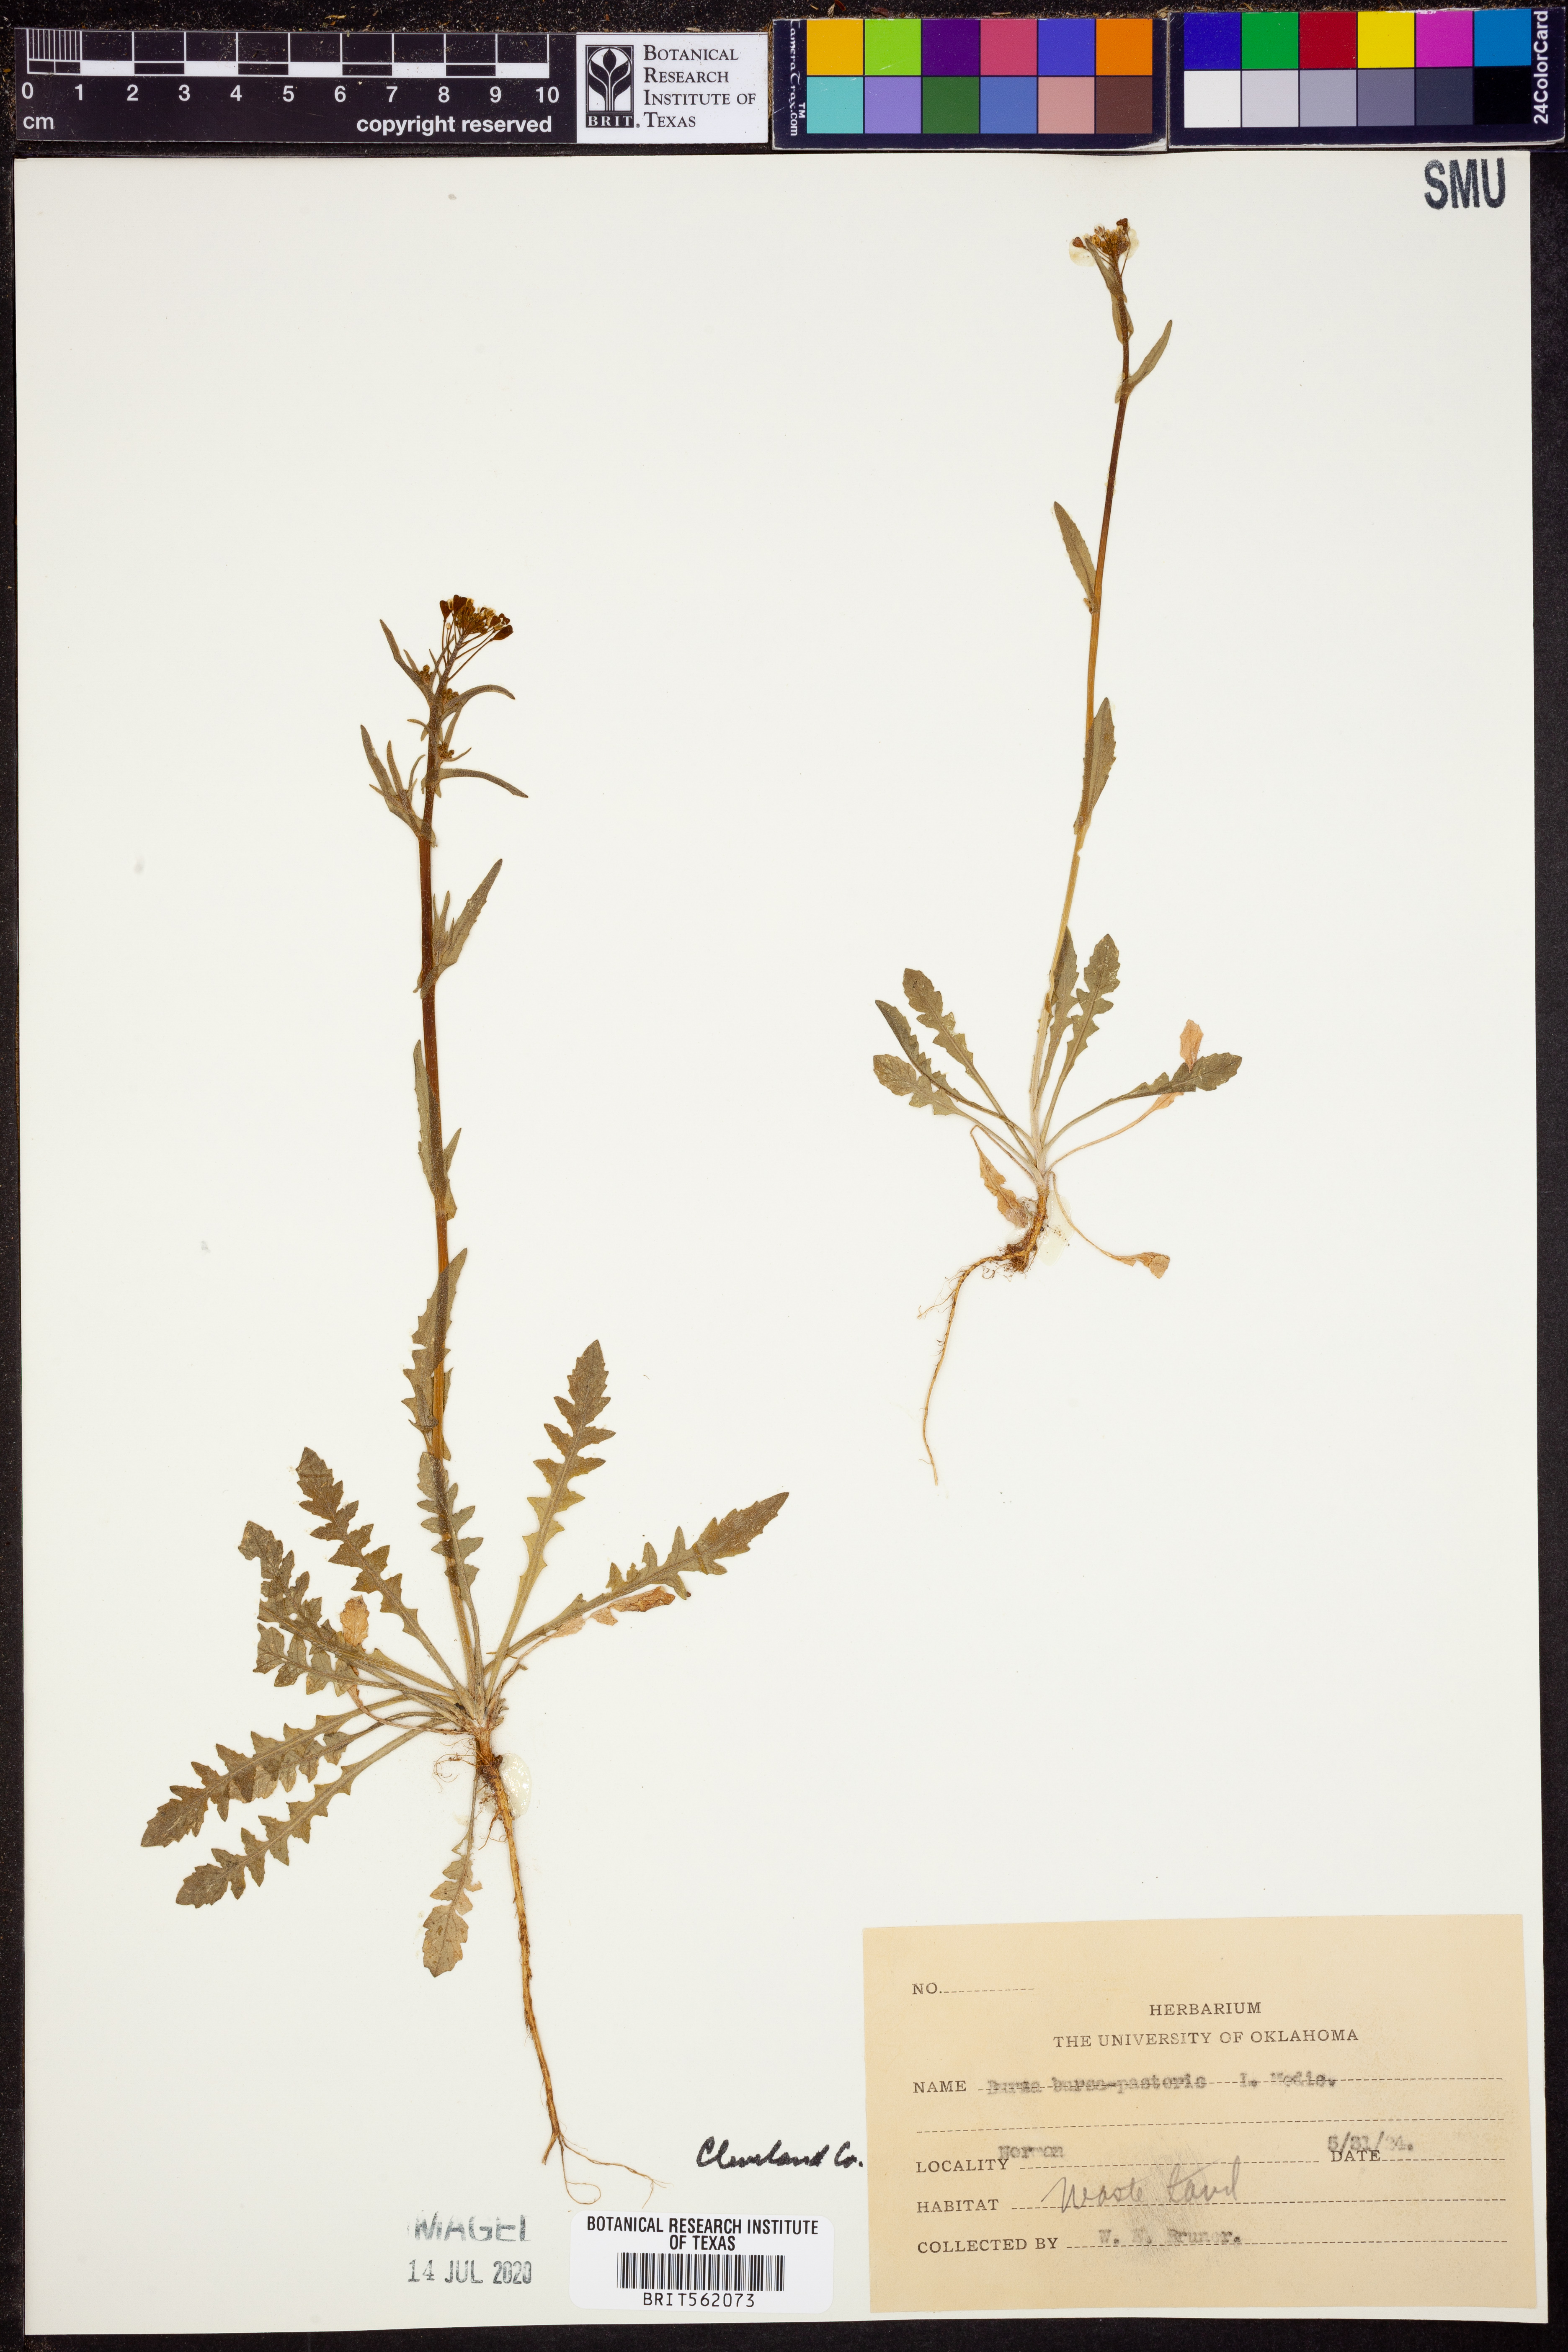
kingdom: Plantae
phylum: Tracheophyta
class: Magnoliopsida
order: Brassicales
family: Brassicaceae
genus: Capsella
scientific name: Capsella bursa-pastoris
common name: Shepherd's purse
